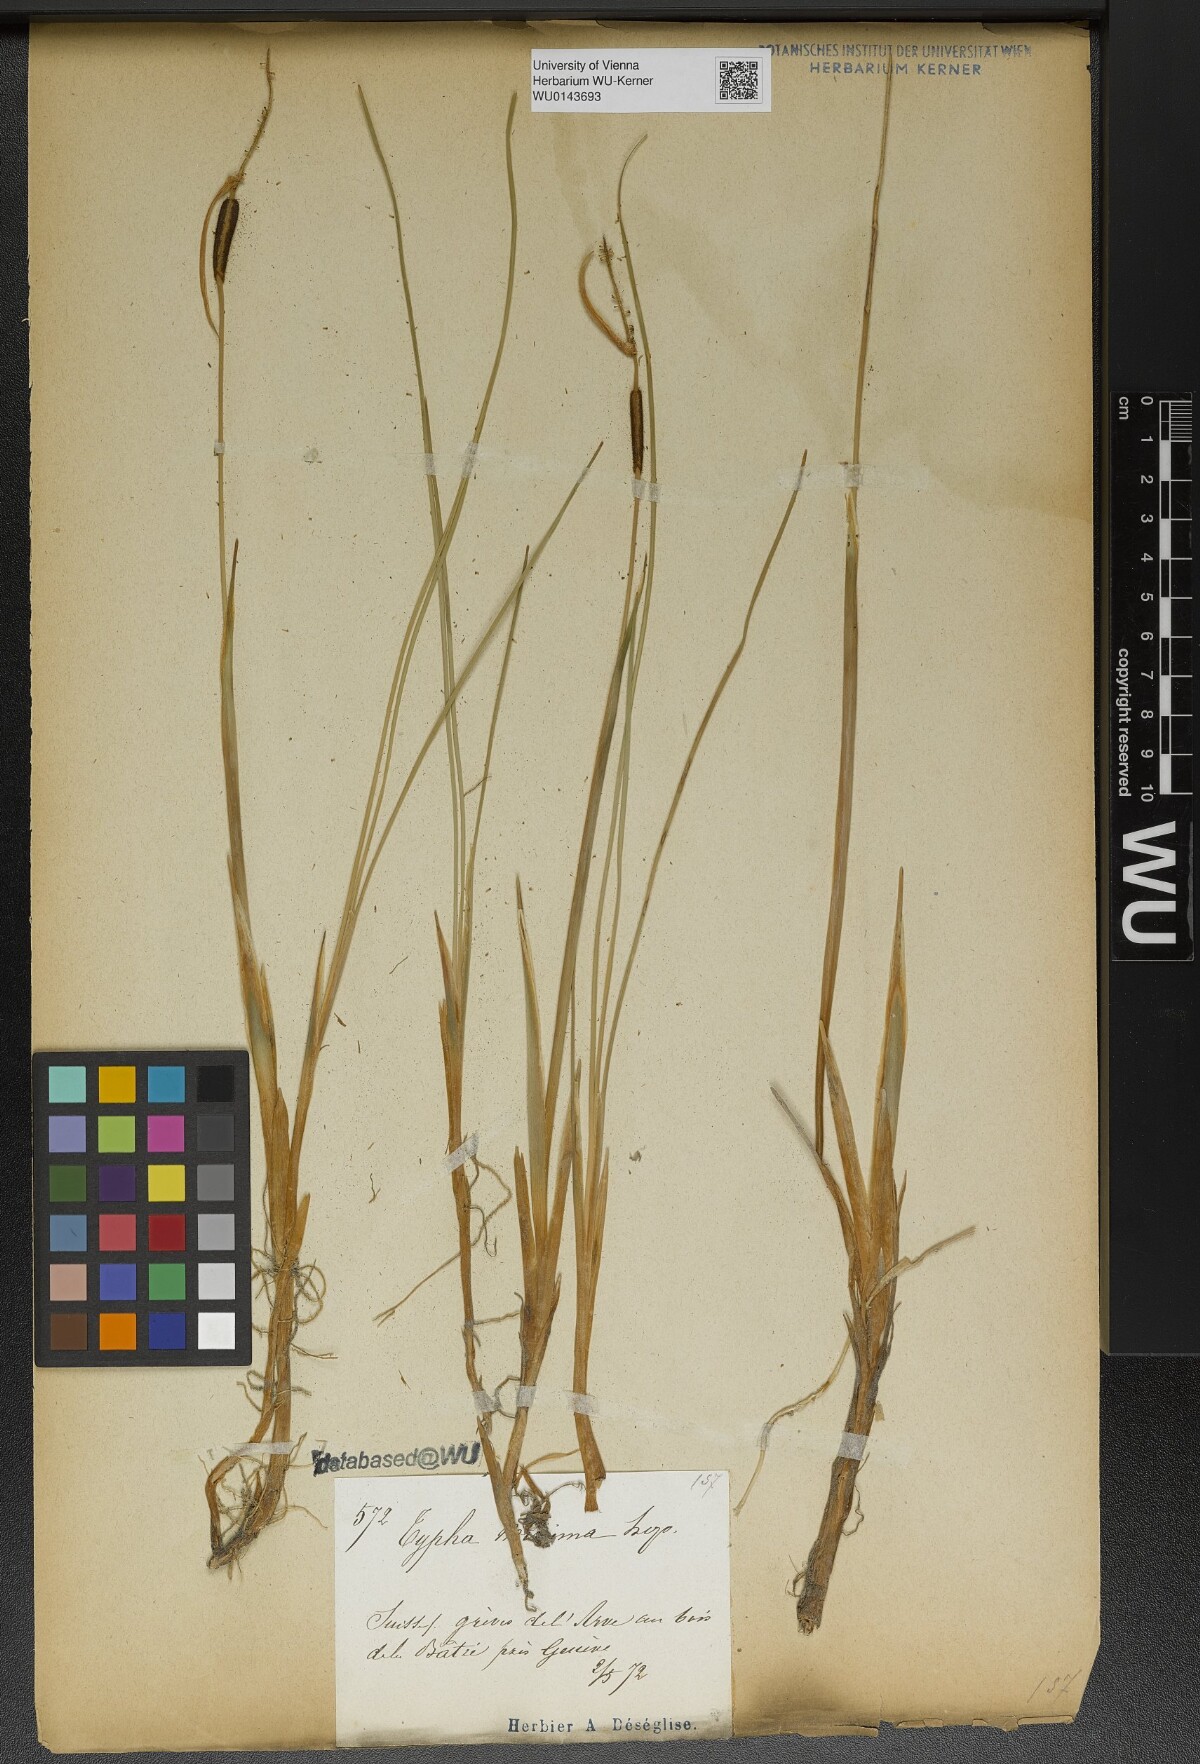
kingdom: Plantae
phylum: Tracheophyta
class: Liliopsida
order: Poales
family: Typhaceae
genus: Typha
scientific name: Typha minima
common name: Dwarf bulrush
